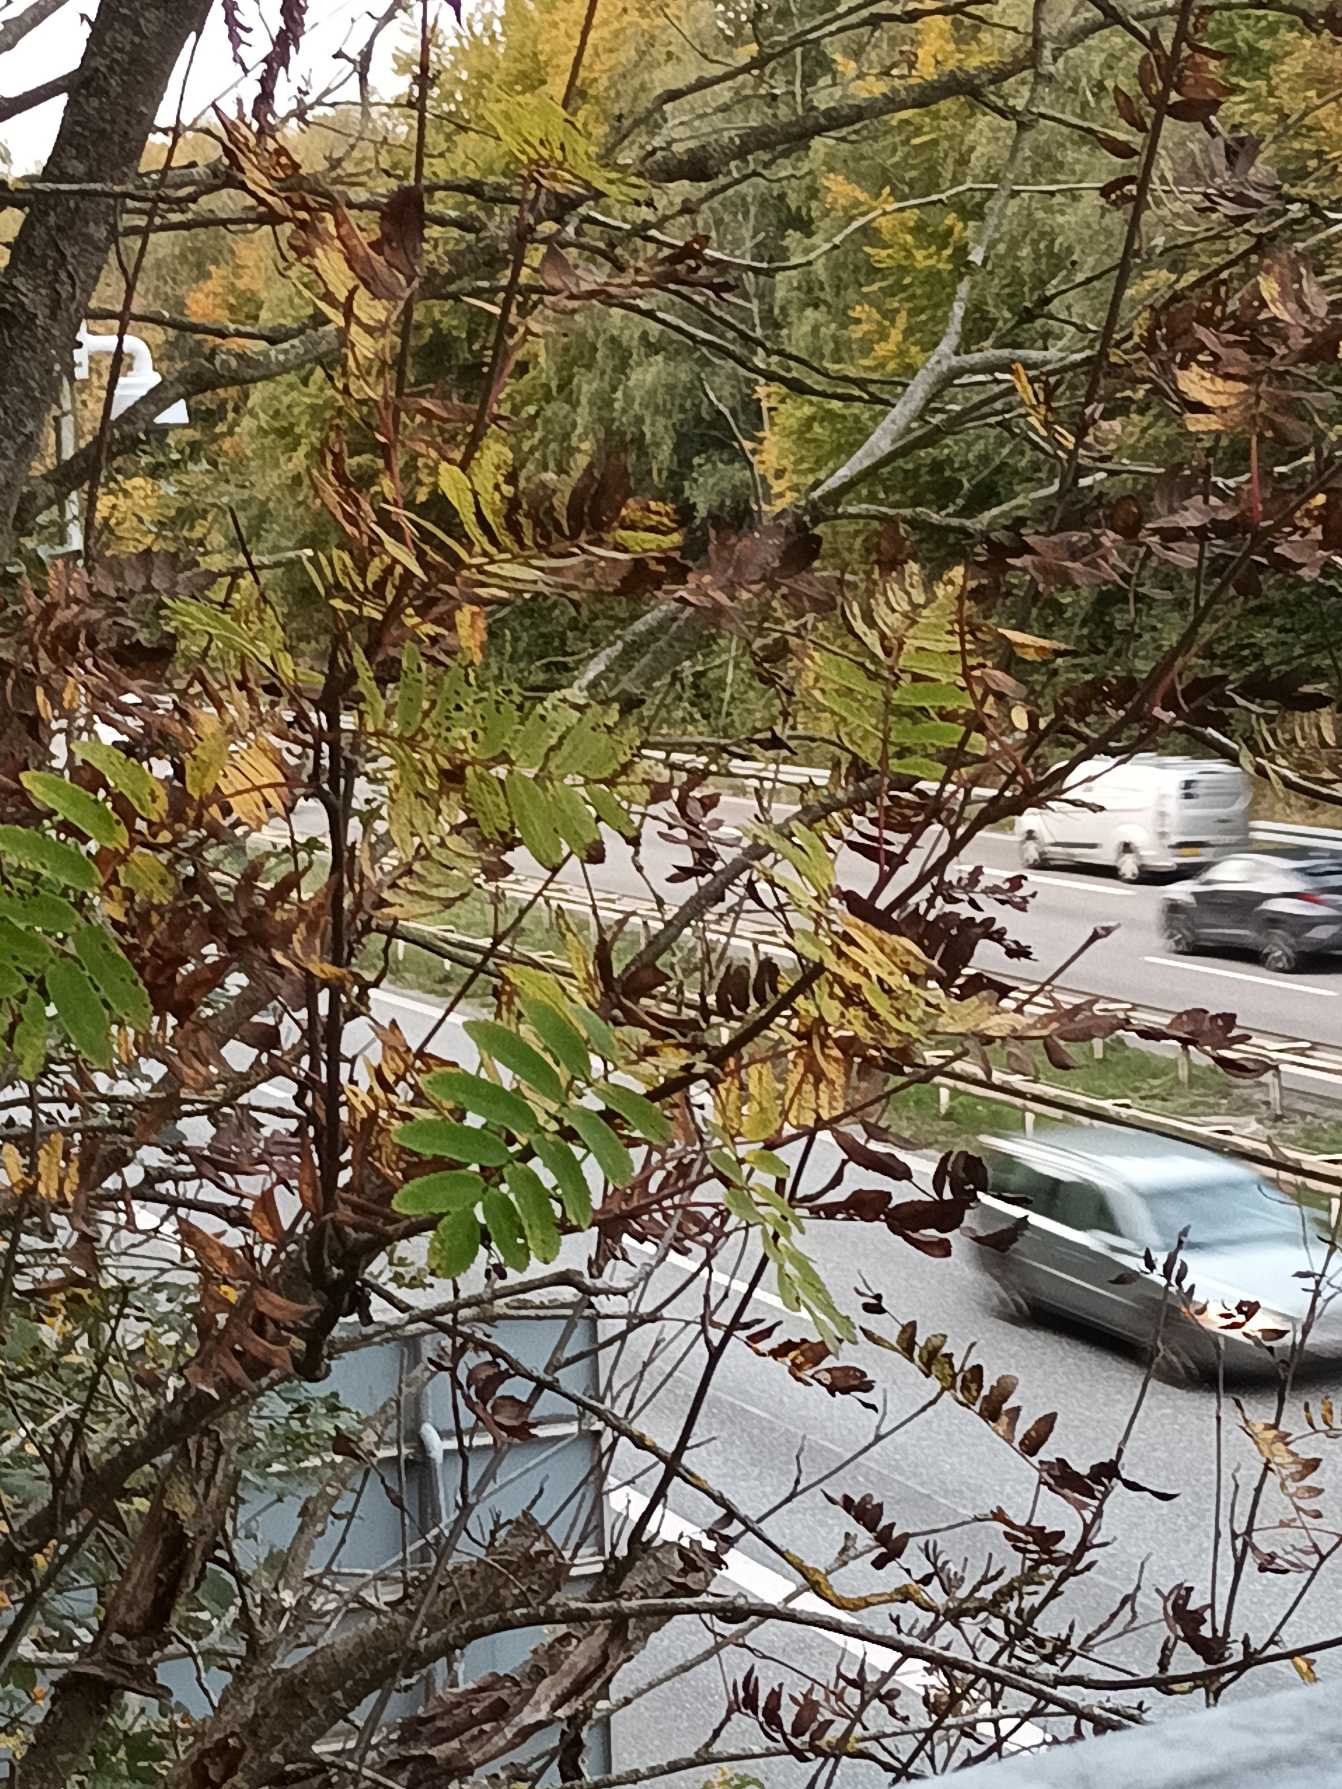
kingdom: Plantae
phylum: Tracheophyta
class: Magnoliopsida
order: Rosales
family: Rosaceae
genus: Sorbus
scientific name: Sorbus aucuparia
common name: Almindelig røn
